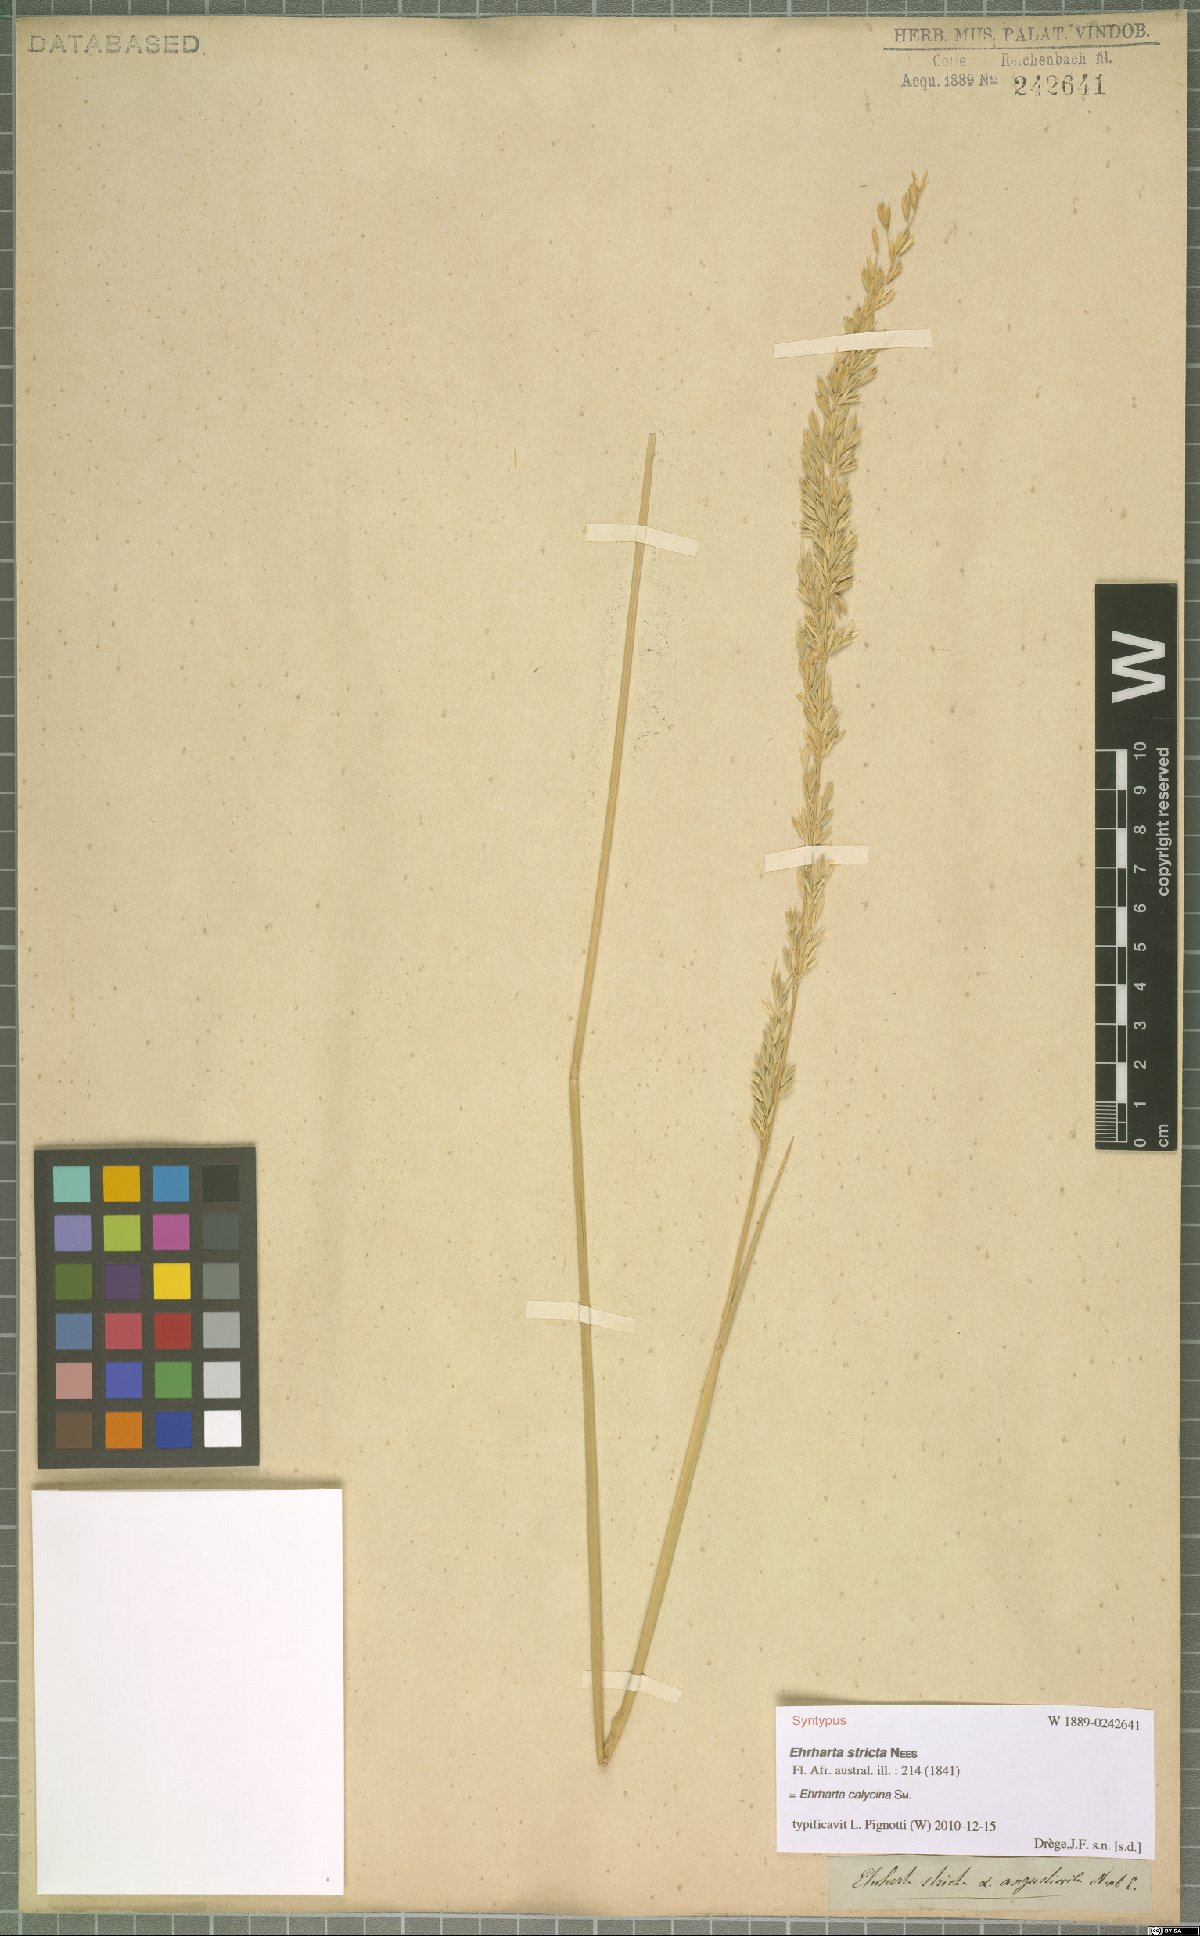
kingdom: Plantae
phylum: Tracheophyta
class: Liliopsida
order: Poales
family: Poaceae
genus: Ehrharta
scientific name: Ehrharta calycina
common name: Perennial veldtgrass
